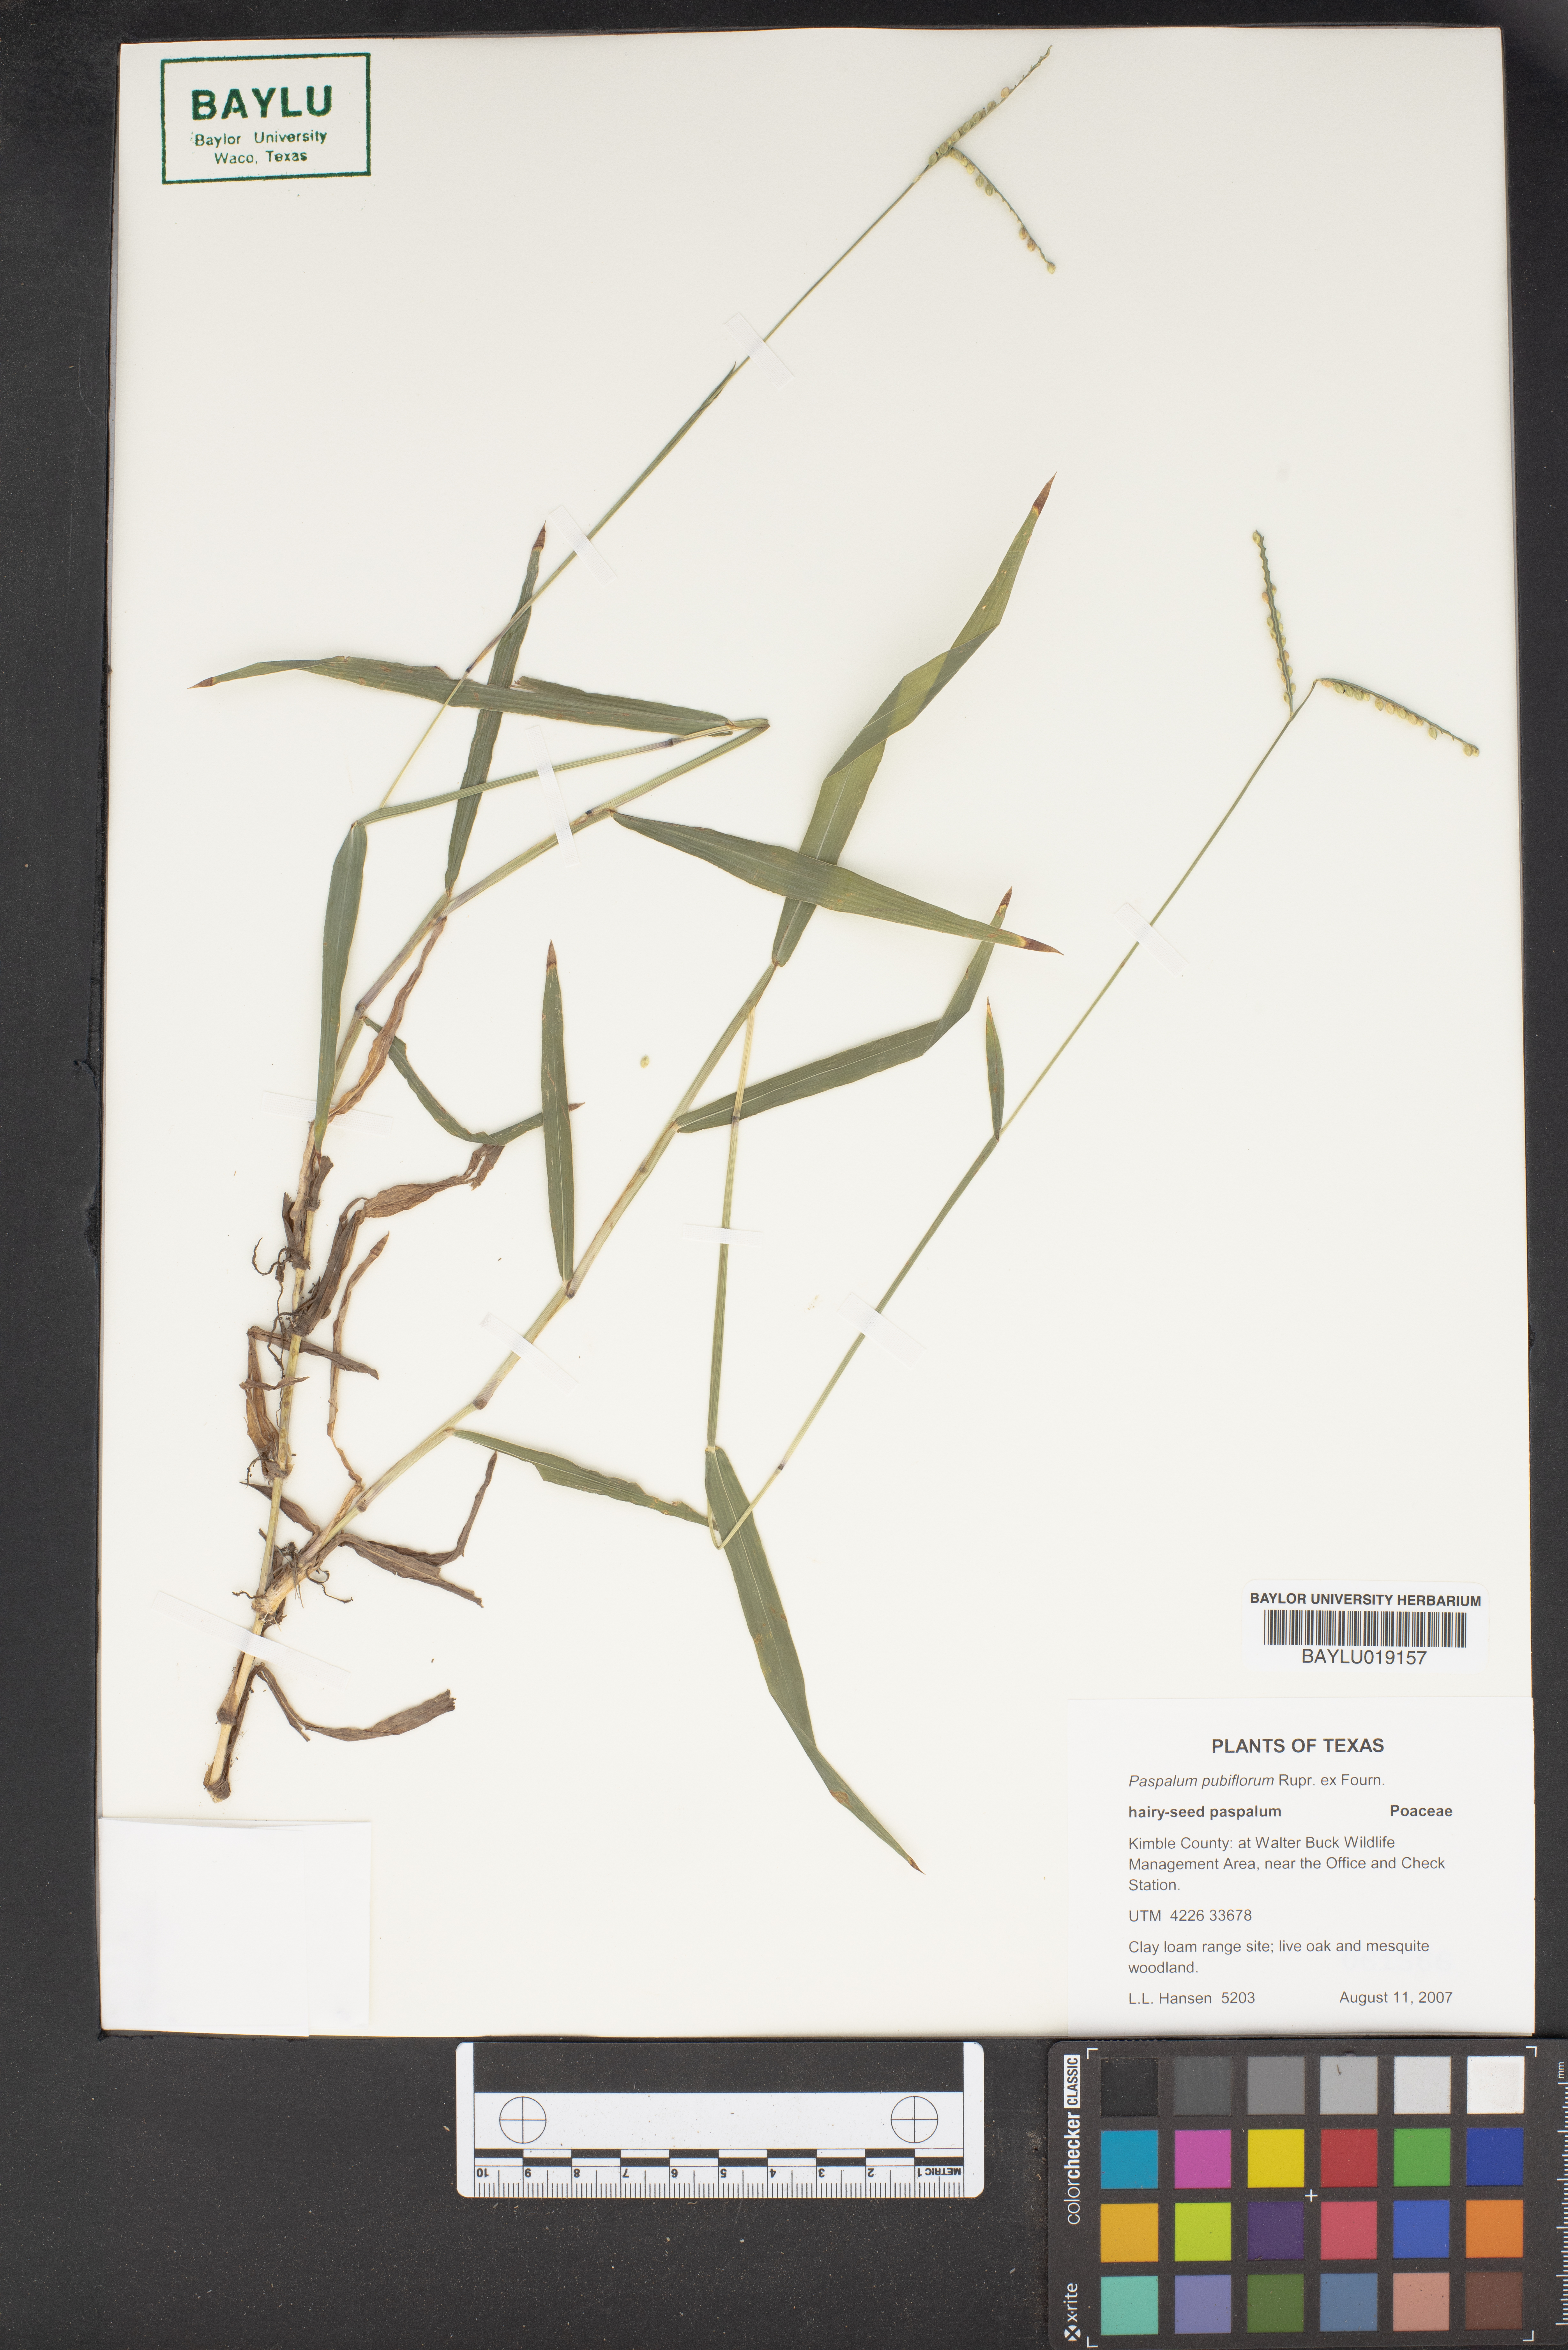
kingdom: Plantae
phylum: Tracheophyta
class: Liliopsida
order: Poales
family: Poaceae
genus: Paspalum
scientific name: Paspalum pubiflorum
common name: Hairy-seed paspalum
